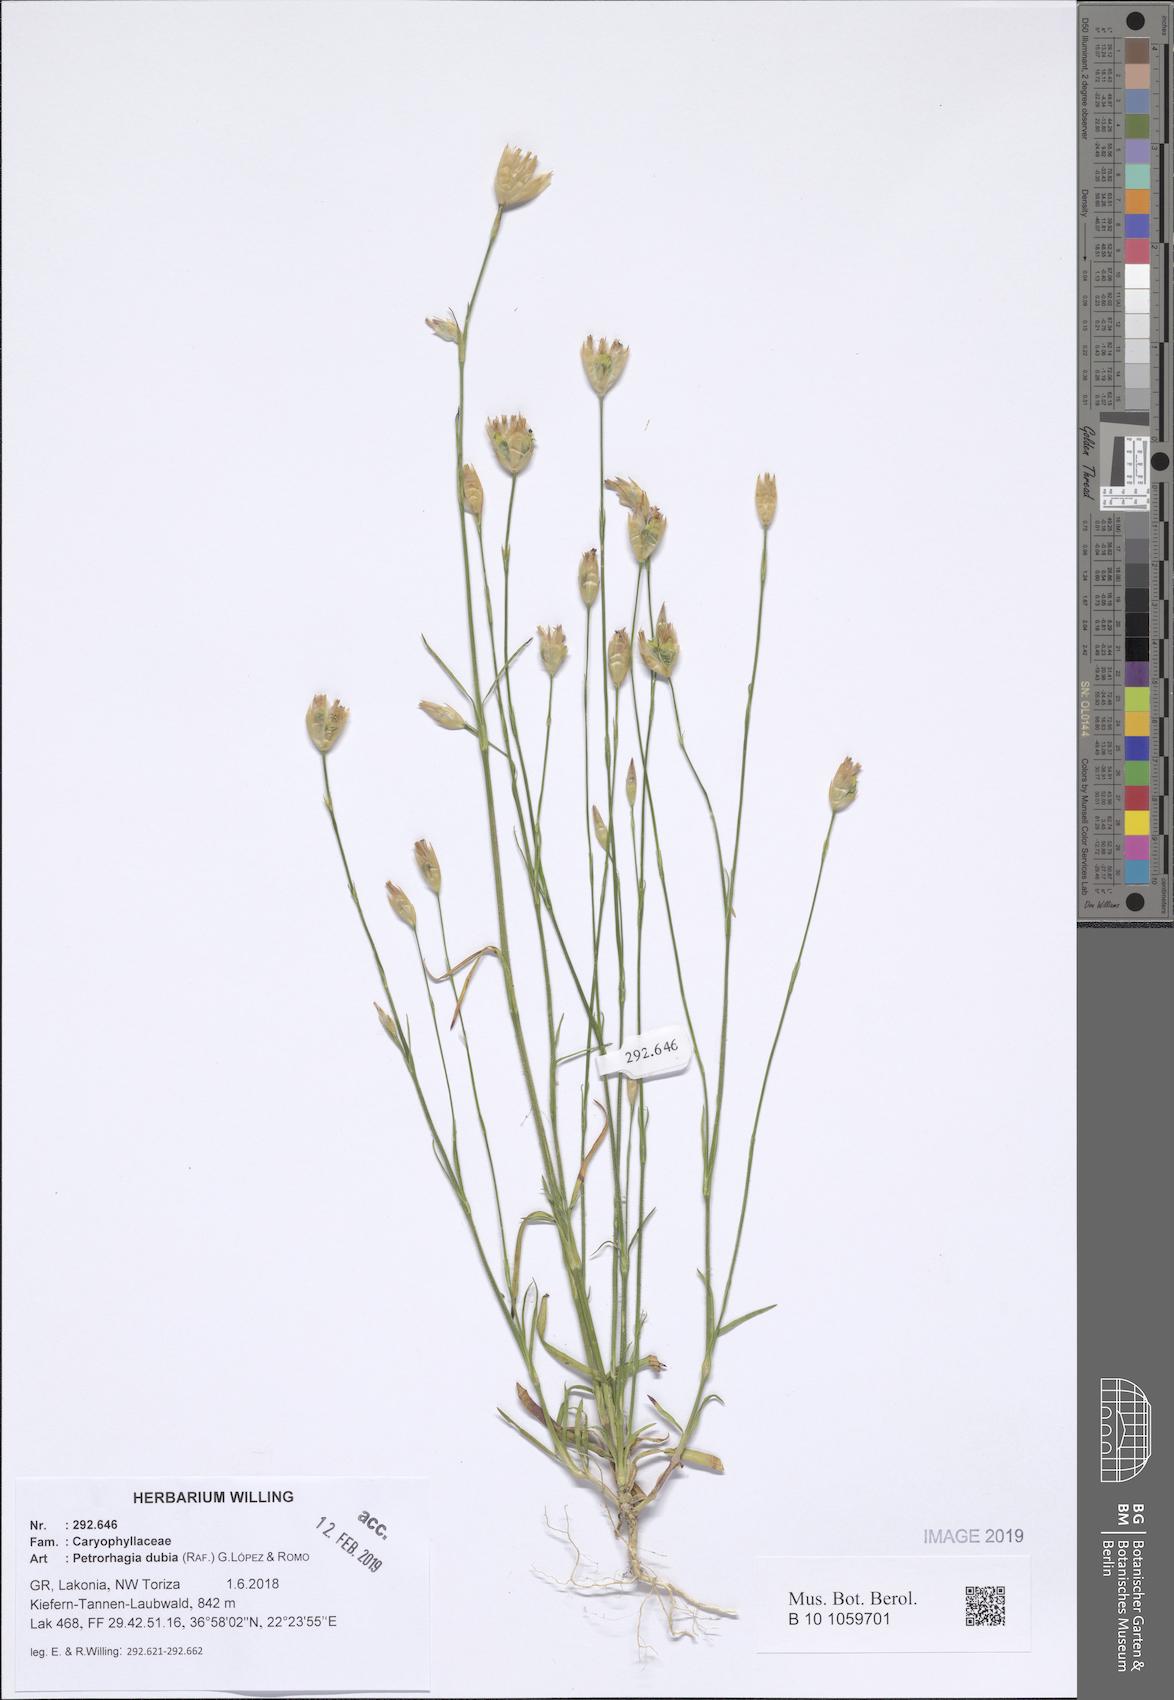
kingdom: Plantae
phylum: Tracheophyta
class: Magnoliopsida
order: Caryophyllales
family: Caryophyllaceae
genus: Petrorhagia
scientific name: Petrorhagia dubia
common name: Hairypink
